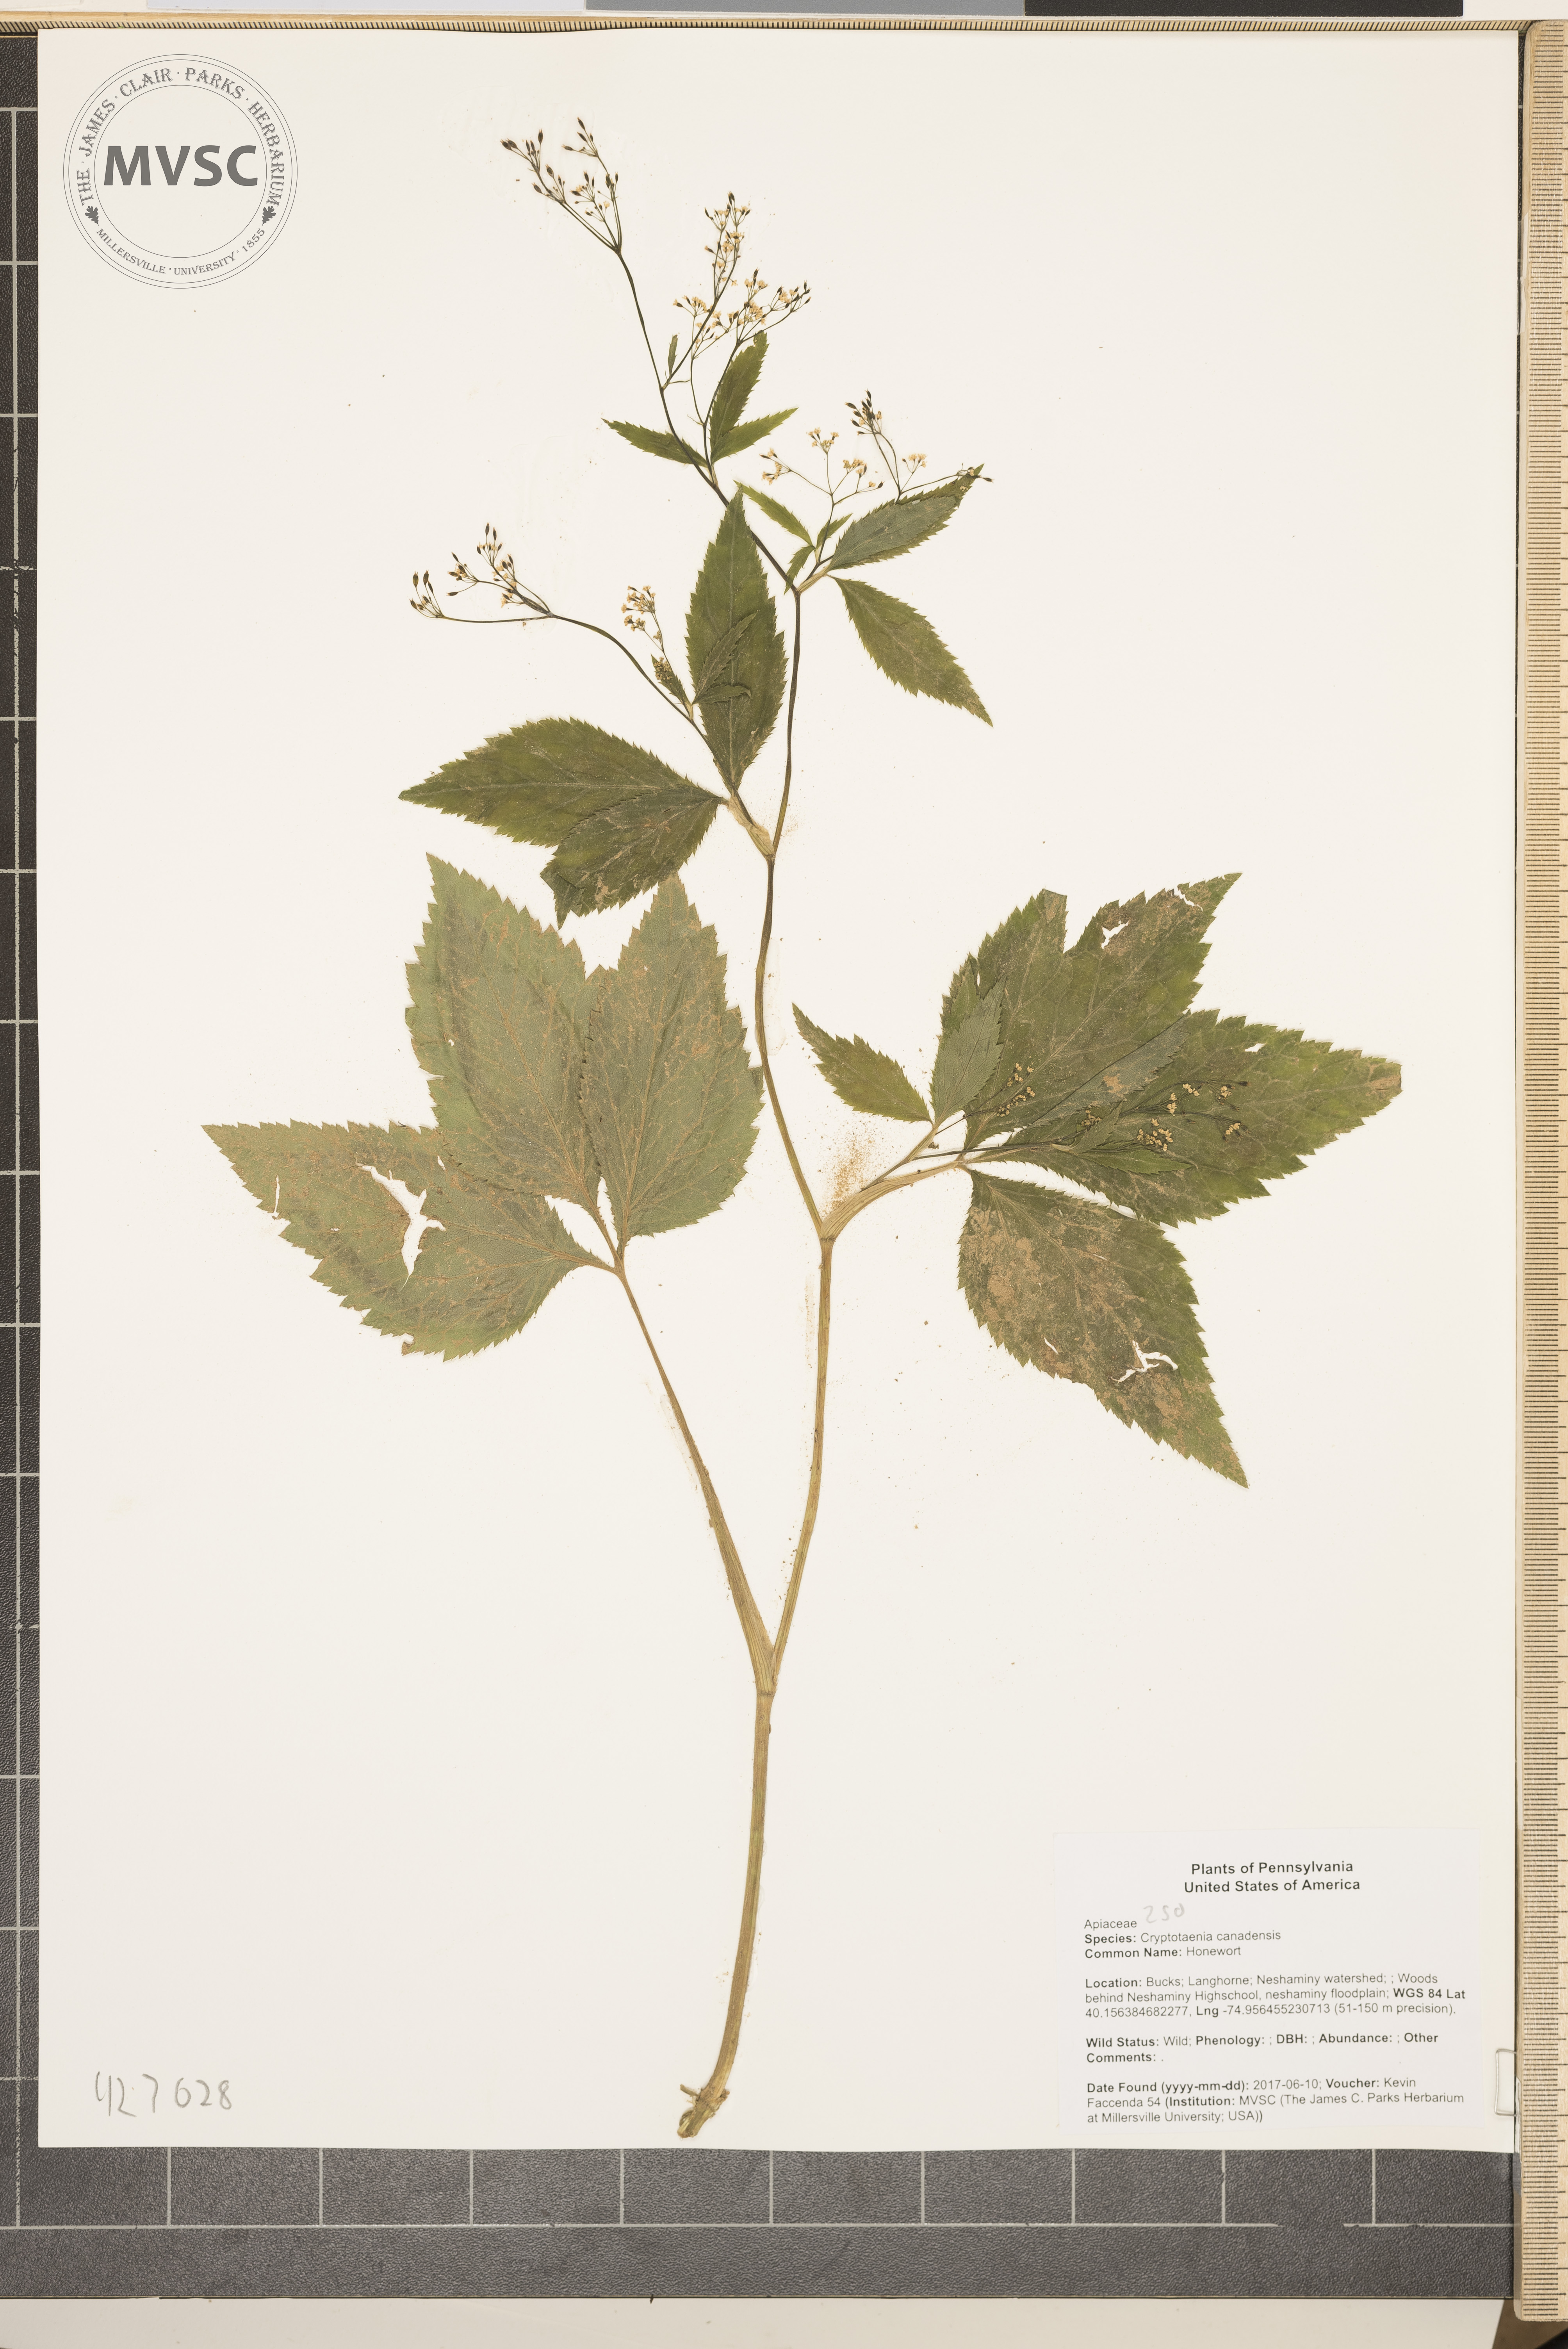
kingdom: Plantae
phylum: Tracheophyta
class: Magnoliopsida
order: Apiales
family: Apiaceae
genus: Cryptotaenia
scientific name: Cryptotaenia canadensis
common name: Honewort
